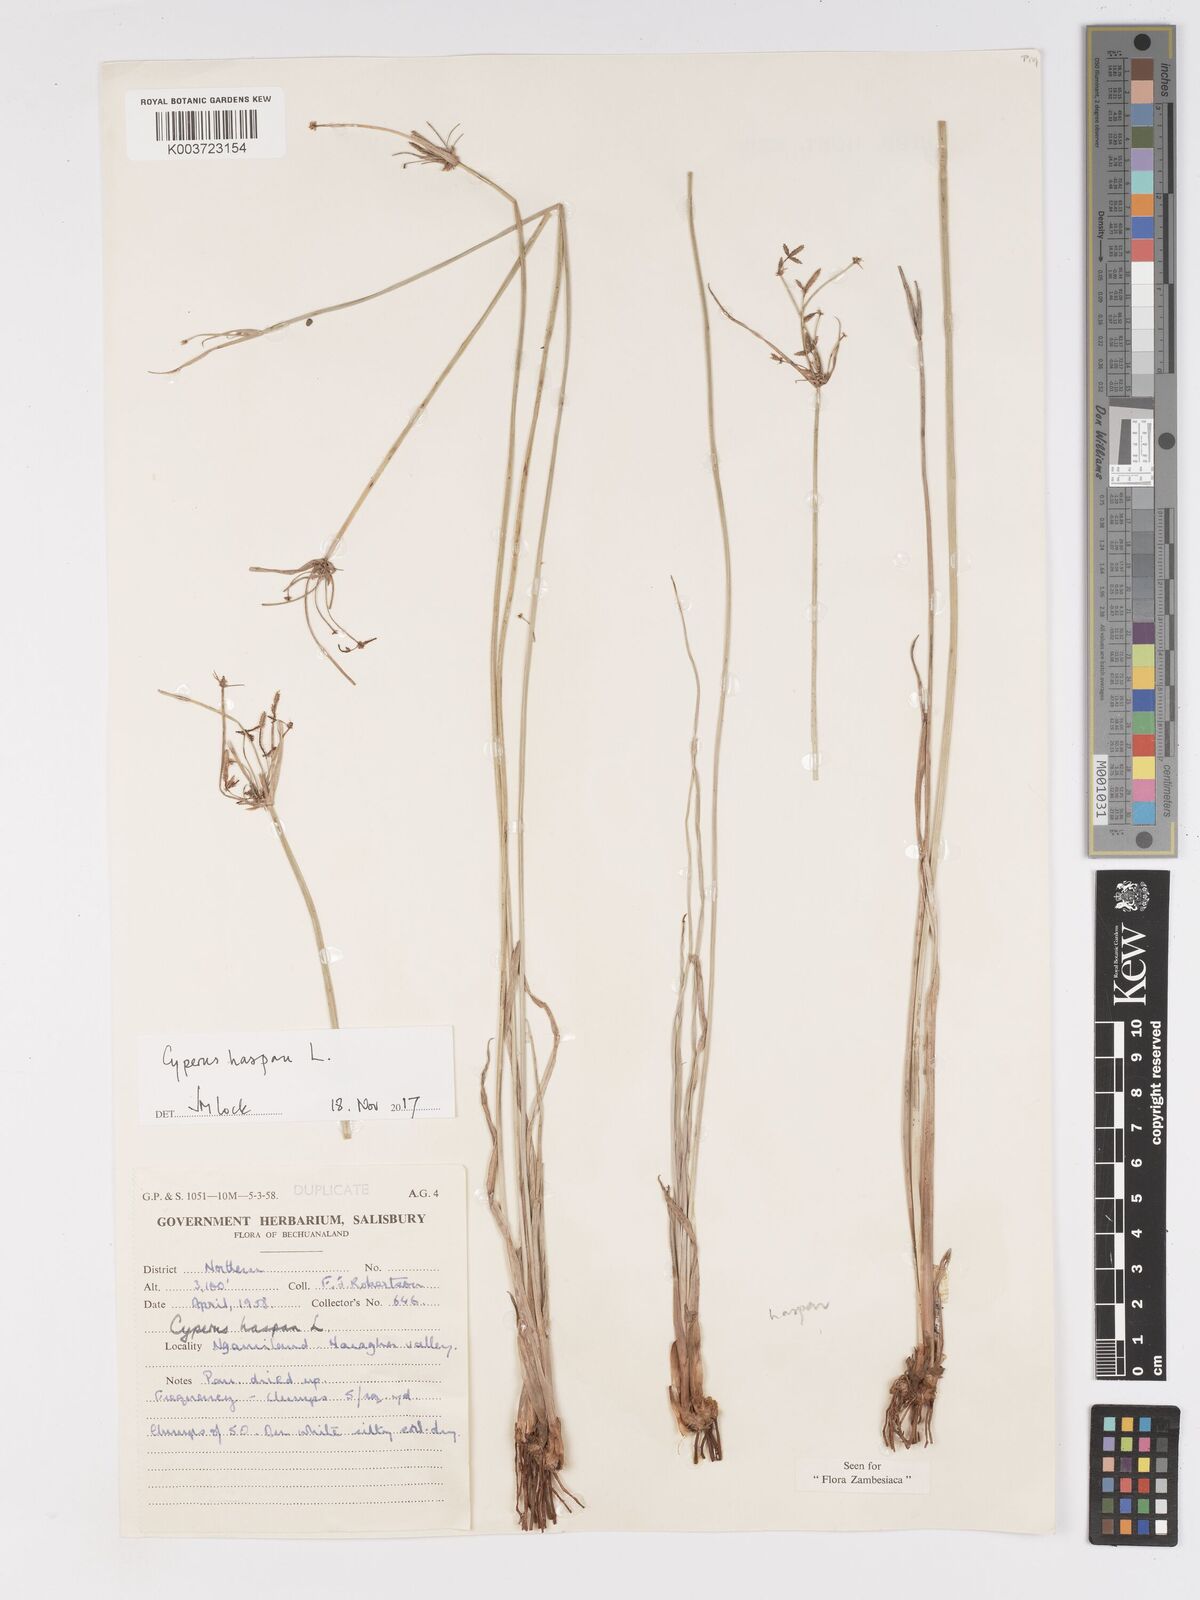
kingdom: Plantae
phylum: Tracheophyta
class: Liliopsida
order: Poales
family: Cyperaceae
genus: Cyperus
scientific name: Cyperus haspan
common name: Haspan flatsedge
